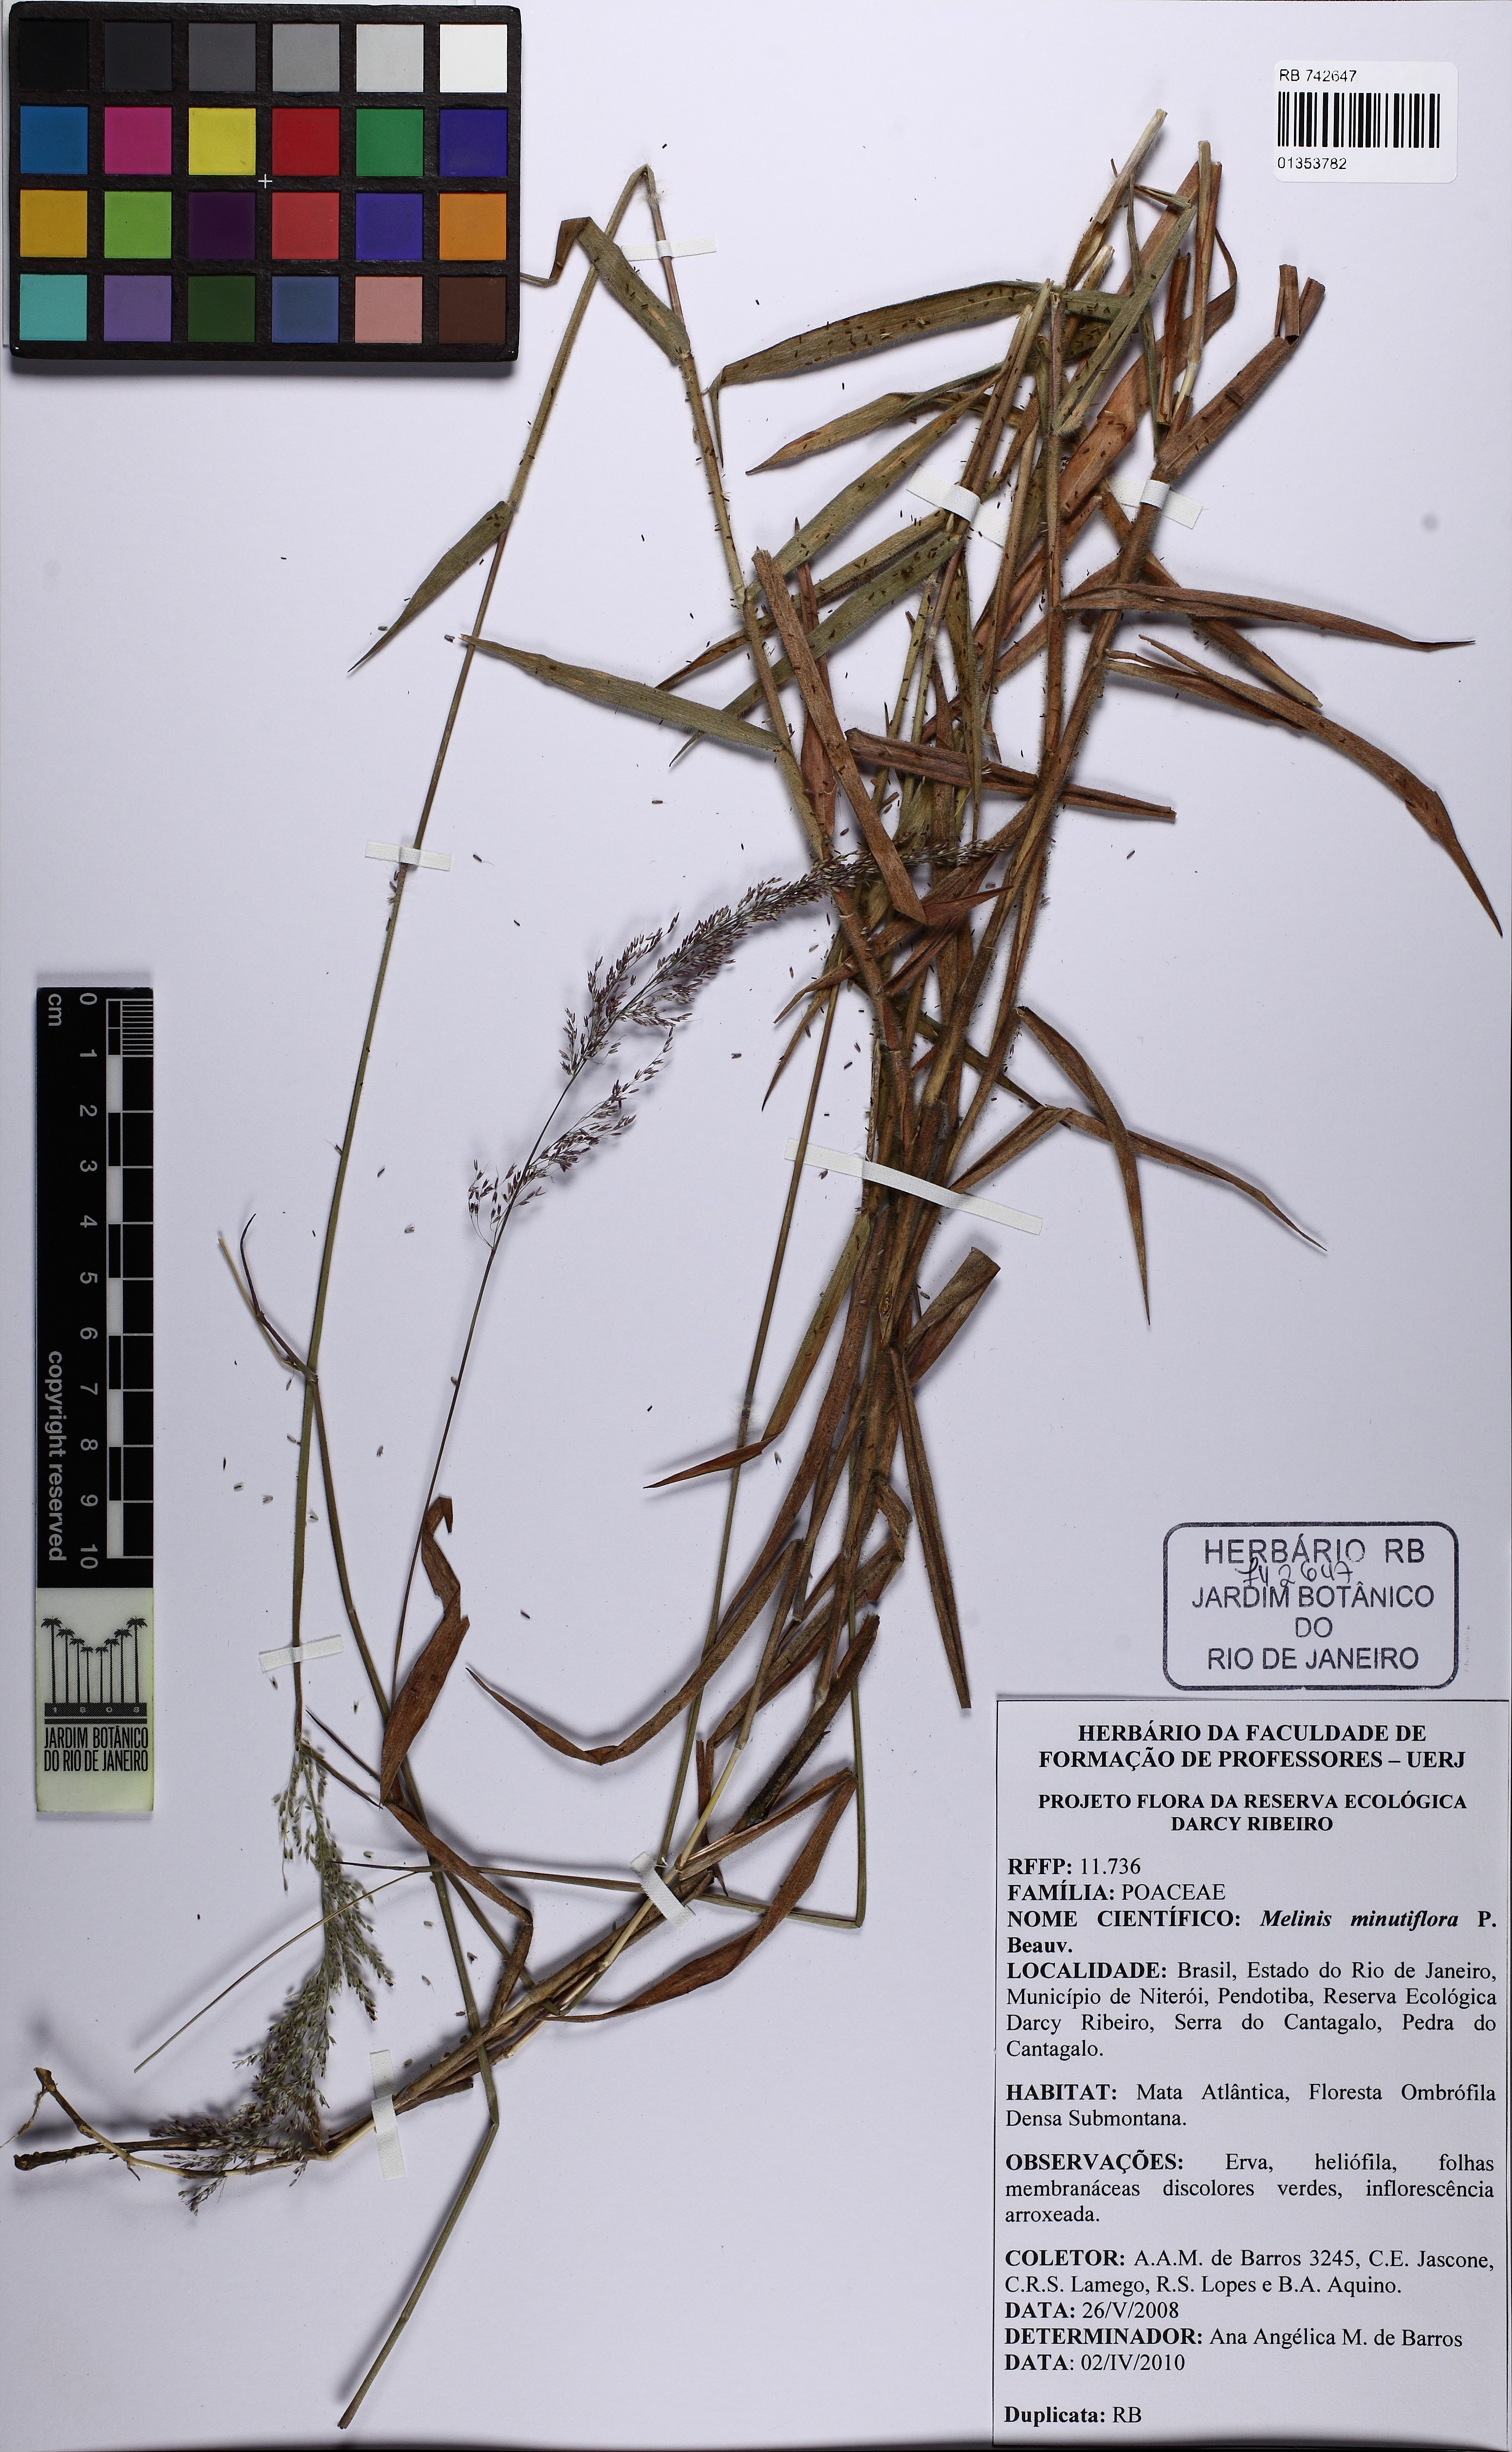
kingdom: Plantae
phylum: Tracheophyta
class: Liliopsida
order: Poales
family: Poaceae
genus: Melinis
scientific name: Melinis minutiflora
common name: Molassesgrass
